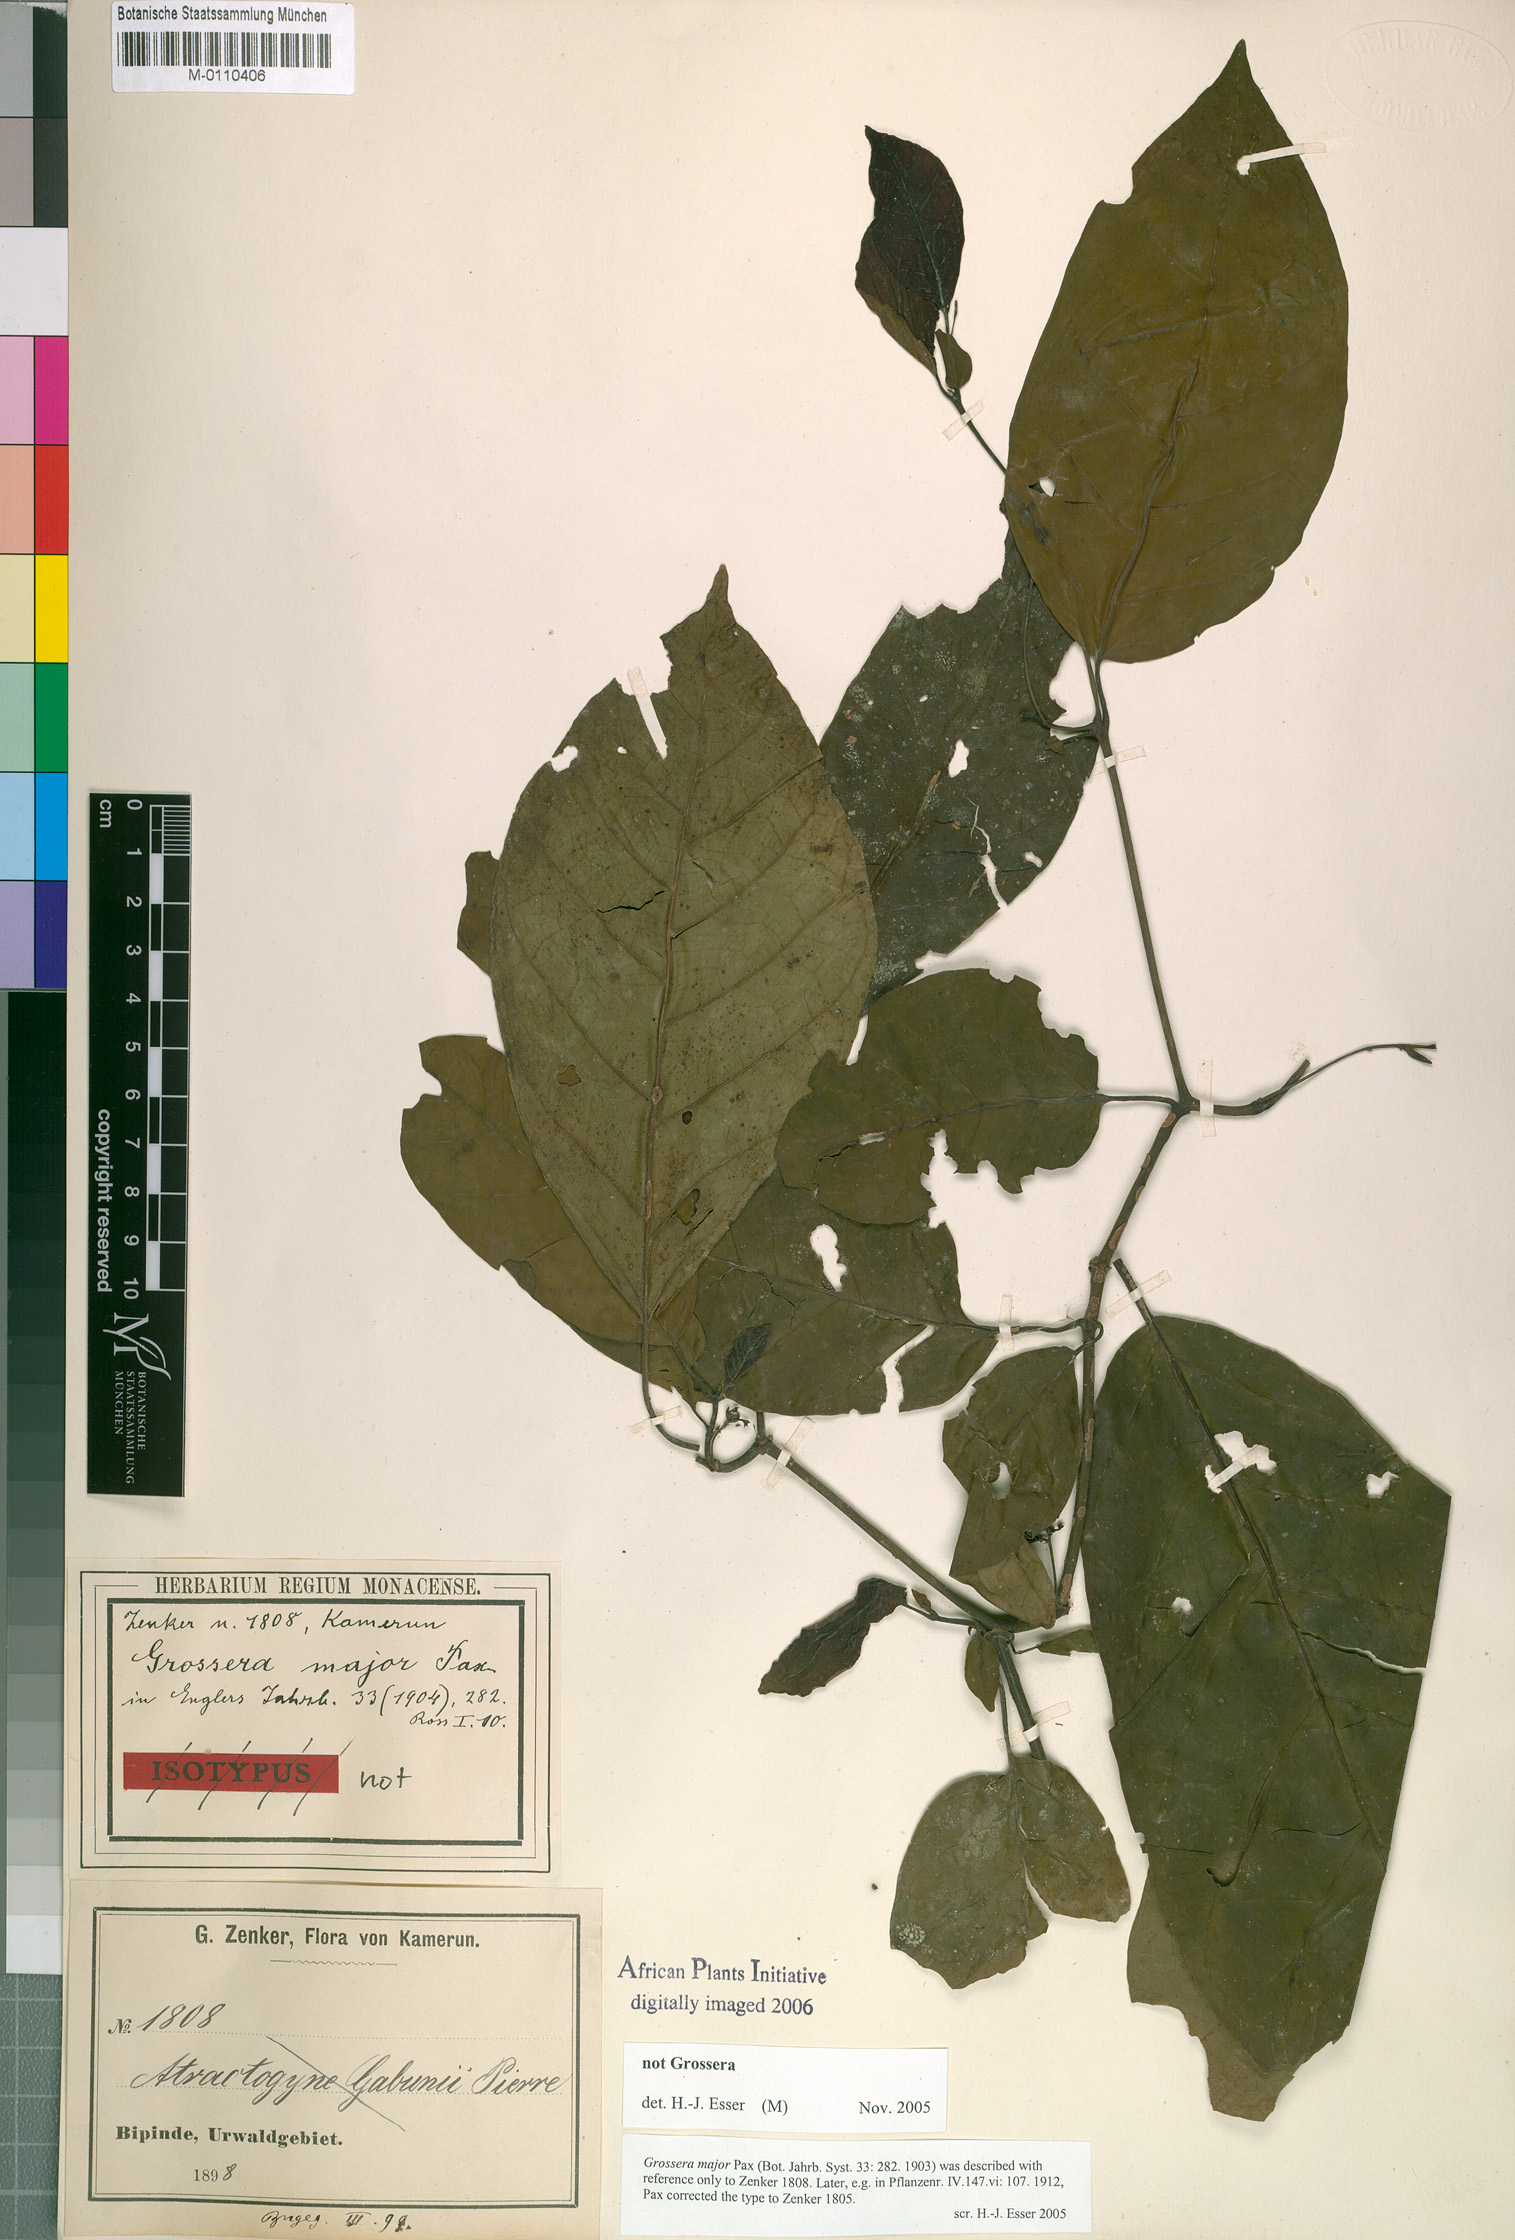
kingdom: Plantae
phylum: Tracheophyta
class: Magnoliopsida
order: Gentianales
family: Rubiaceae
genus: Atractogyne
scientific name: Atractogyne
